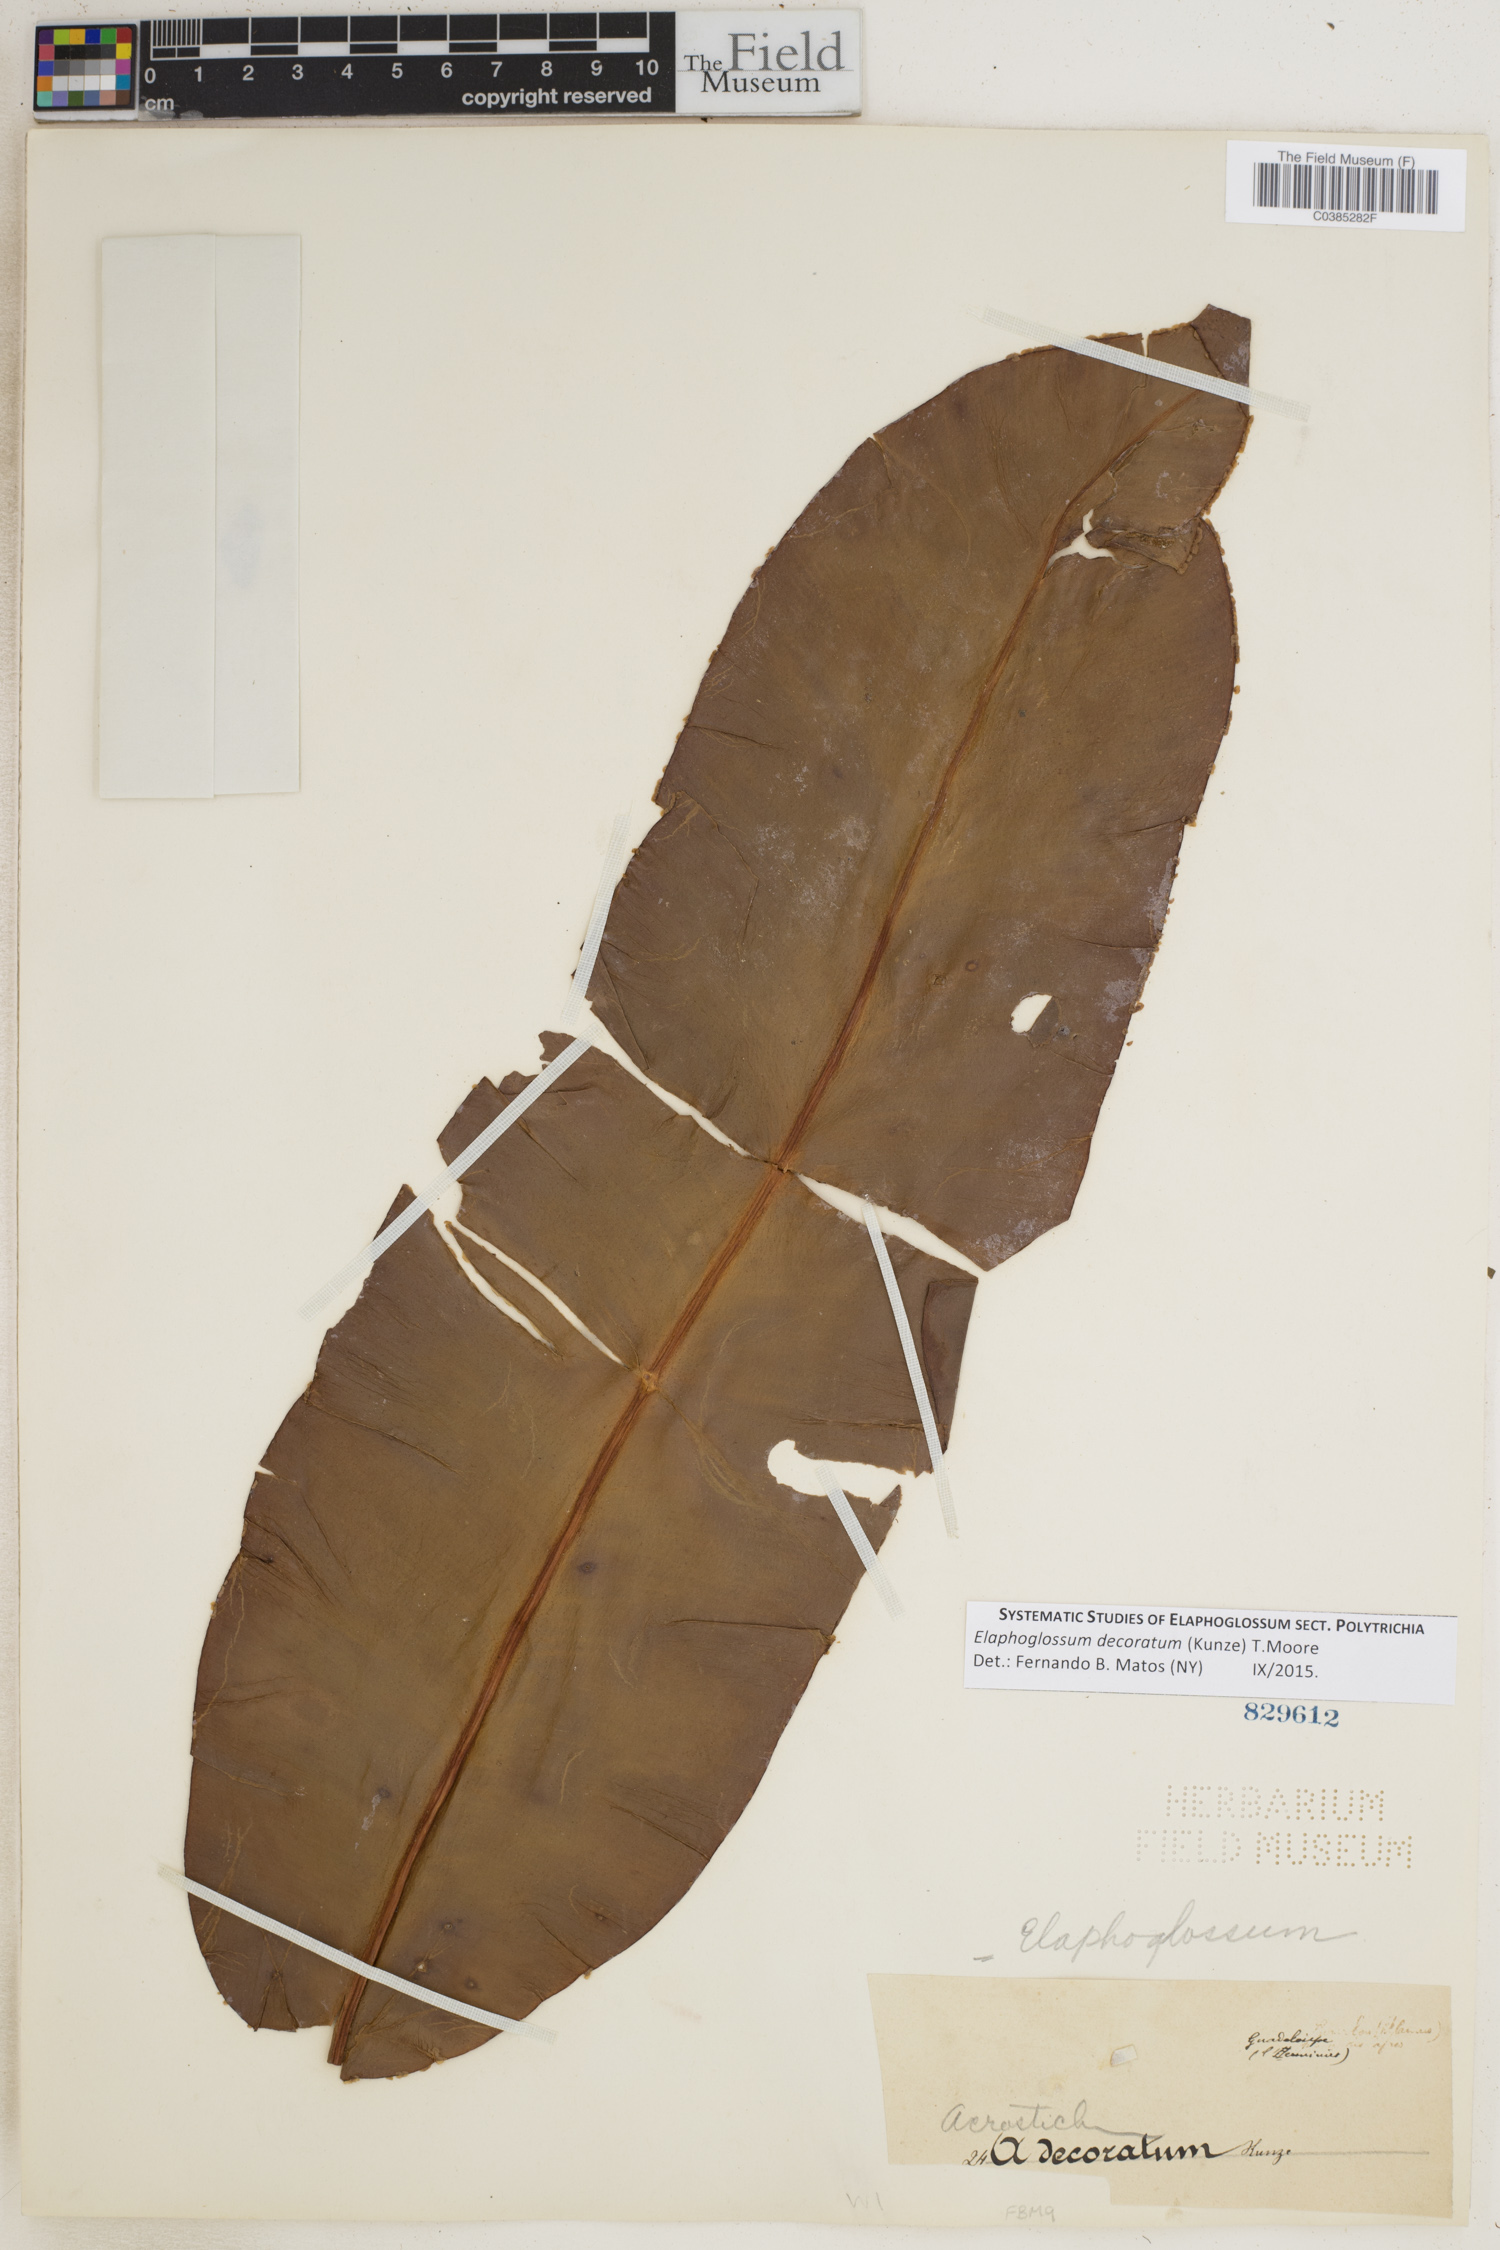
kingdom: Plantae
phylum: Tracheophyta
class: Polypodiopsida
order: Polypodiales
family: Dryopteridaceae
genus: Elaphoglossum
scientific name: Elaphoglossum decoratum
